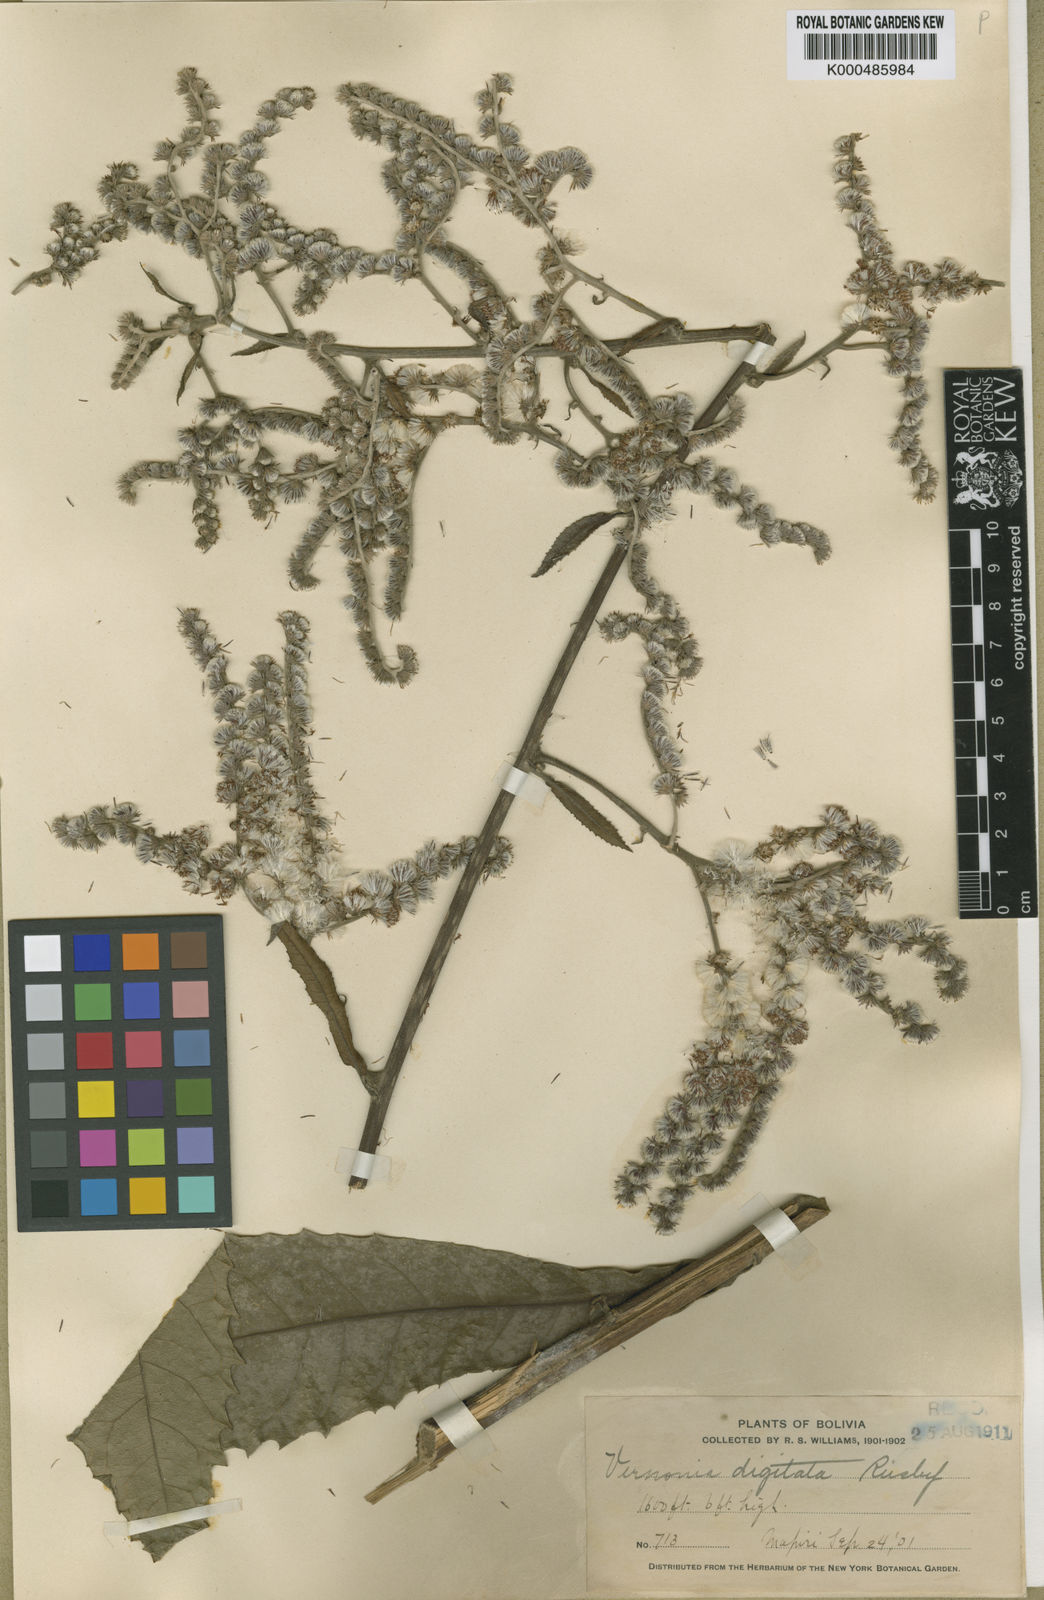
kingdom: Plantae
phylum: Tracheophyta
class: Magnoliopsida
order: Asterales
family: Asteraceae
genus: Eirmocephala
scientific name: Eirmocephala megaphylla
